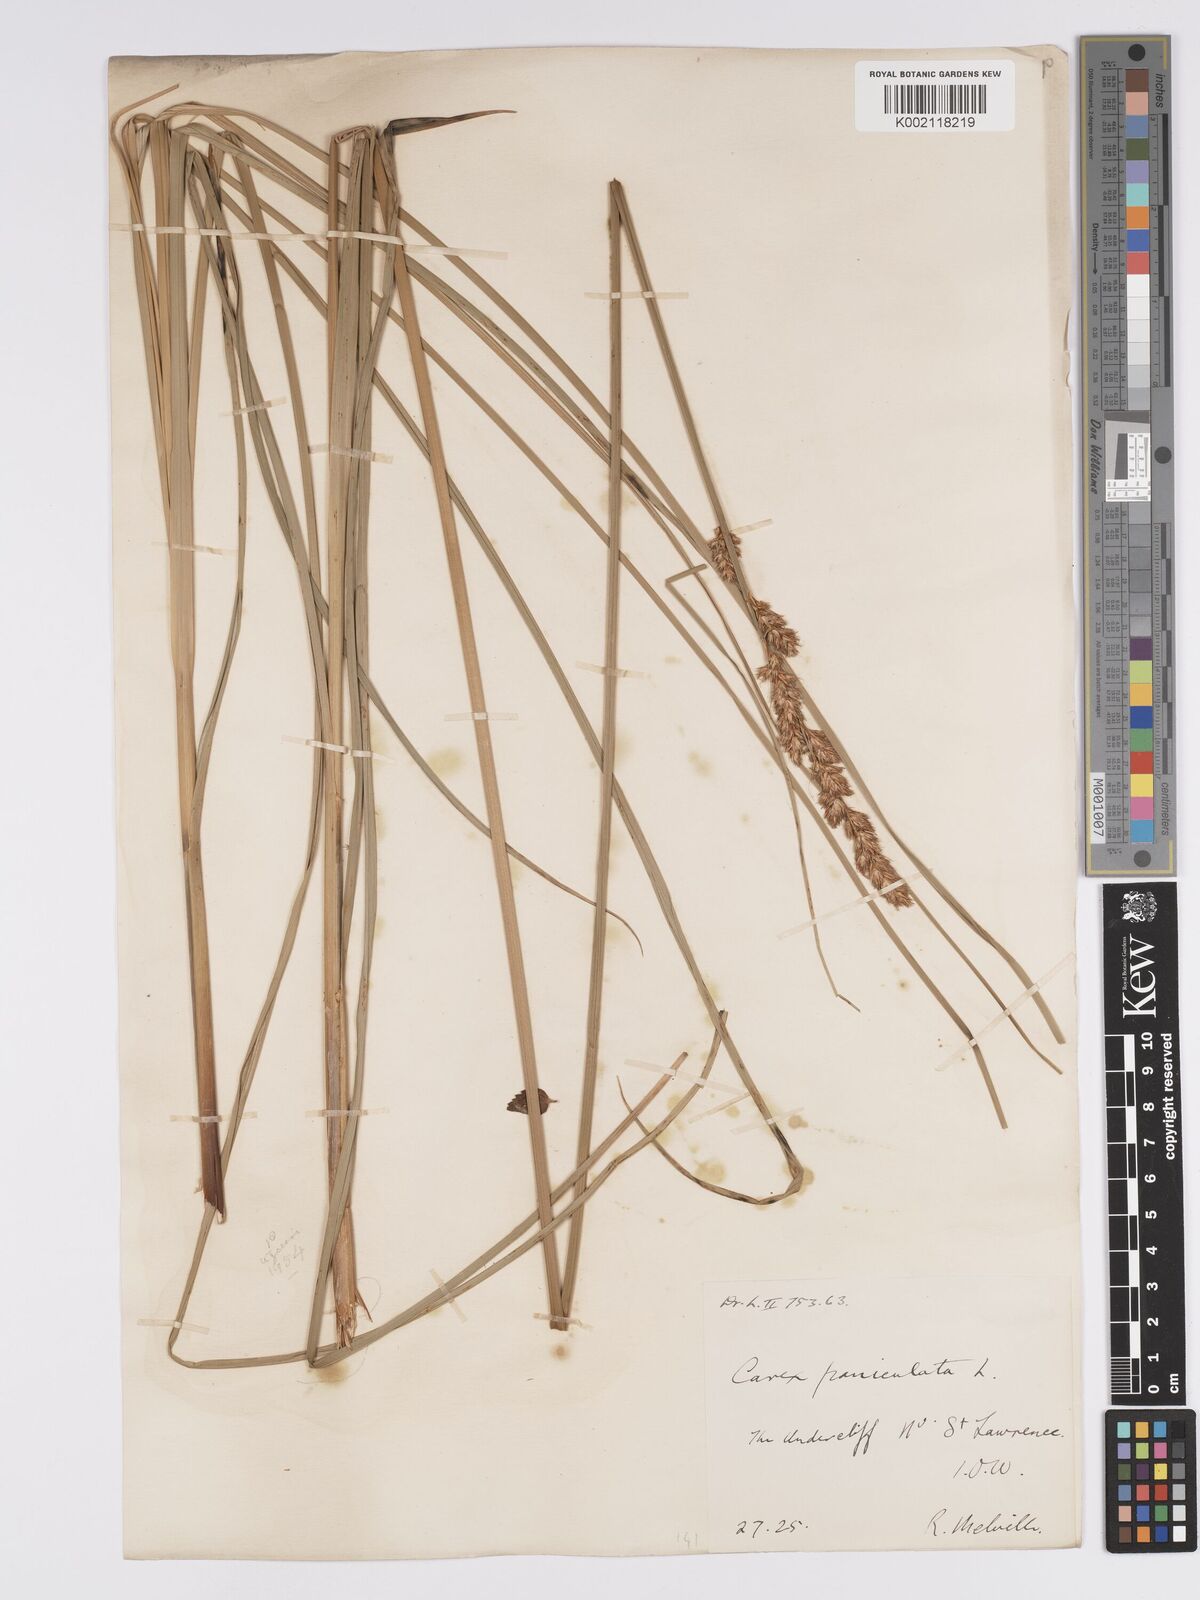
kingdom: Plantae
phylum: Tracheophyta
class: Liliopsida
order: Poales
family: Cyperaceae
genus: Carex
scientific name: Carex
